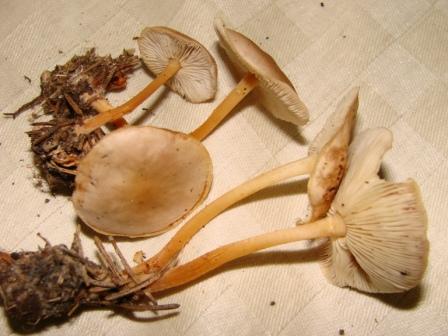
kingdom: Fungi
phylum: Basidiomycota
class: Agaricomycetes
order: Agaricales
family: Omphalotaceae
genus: Gymnopus
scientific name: Gymnopus ocior
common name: mørk fladhat
